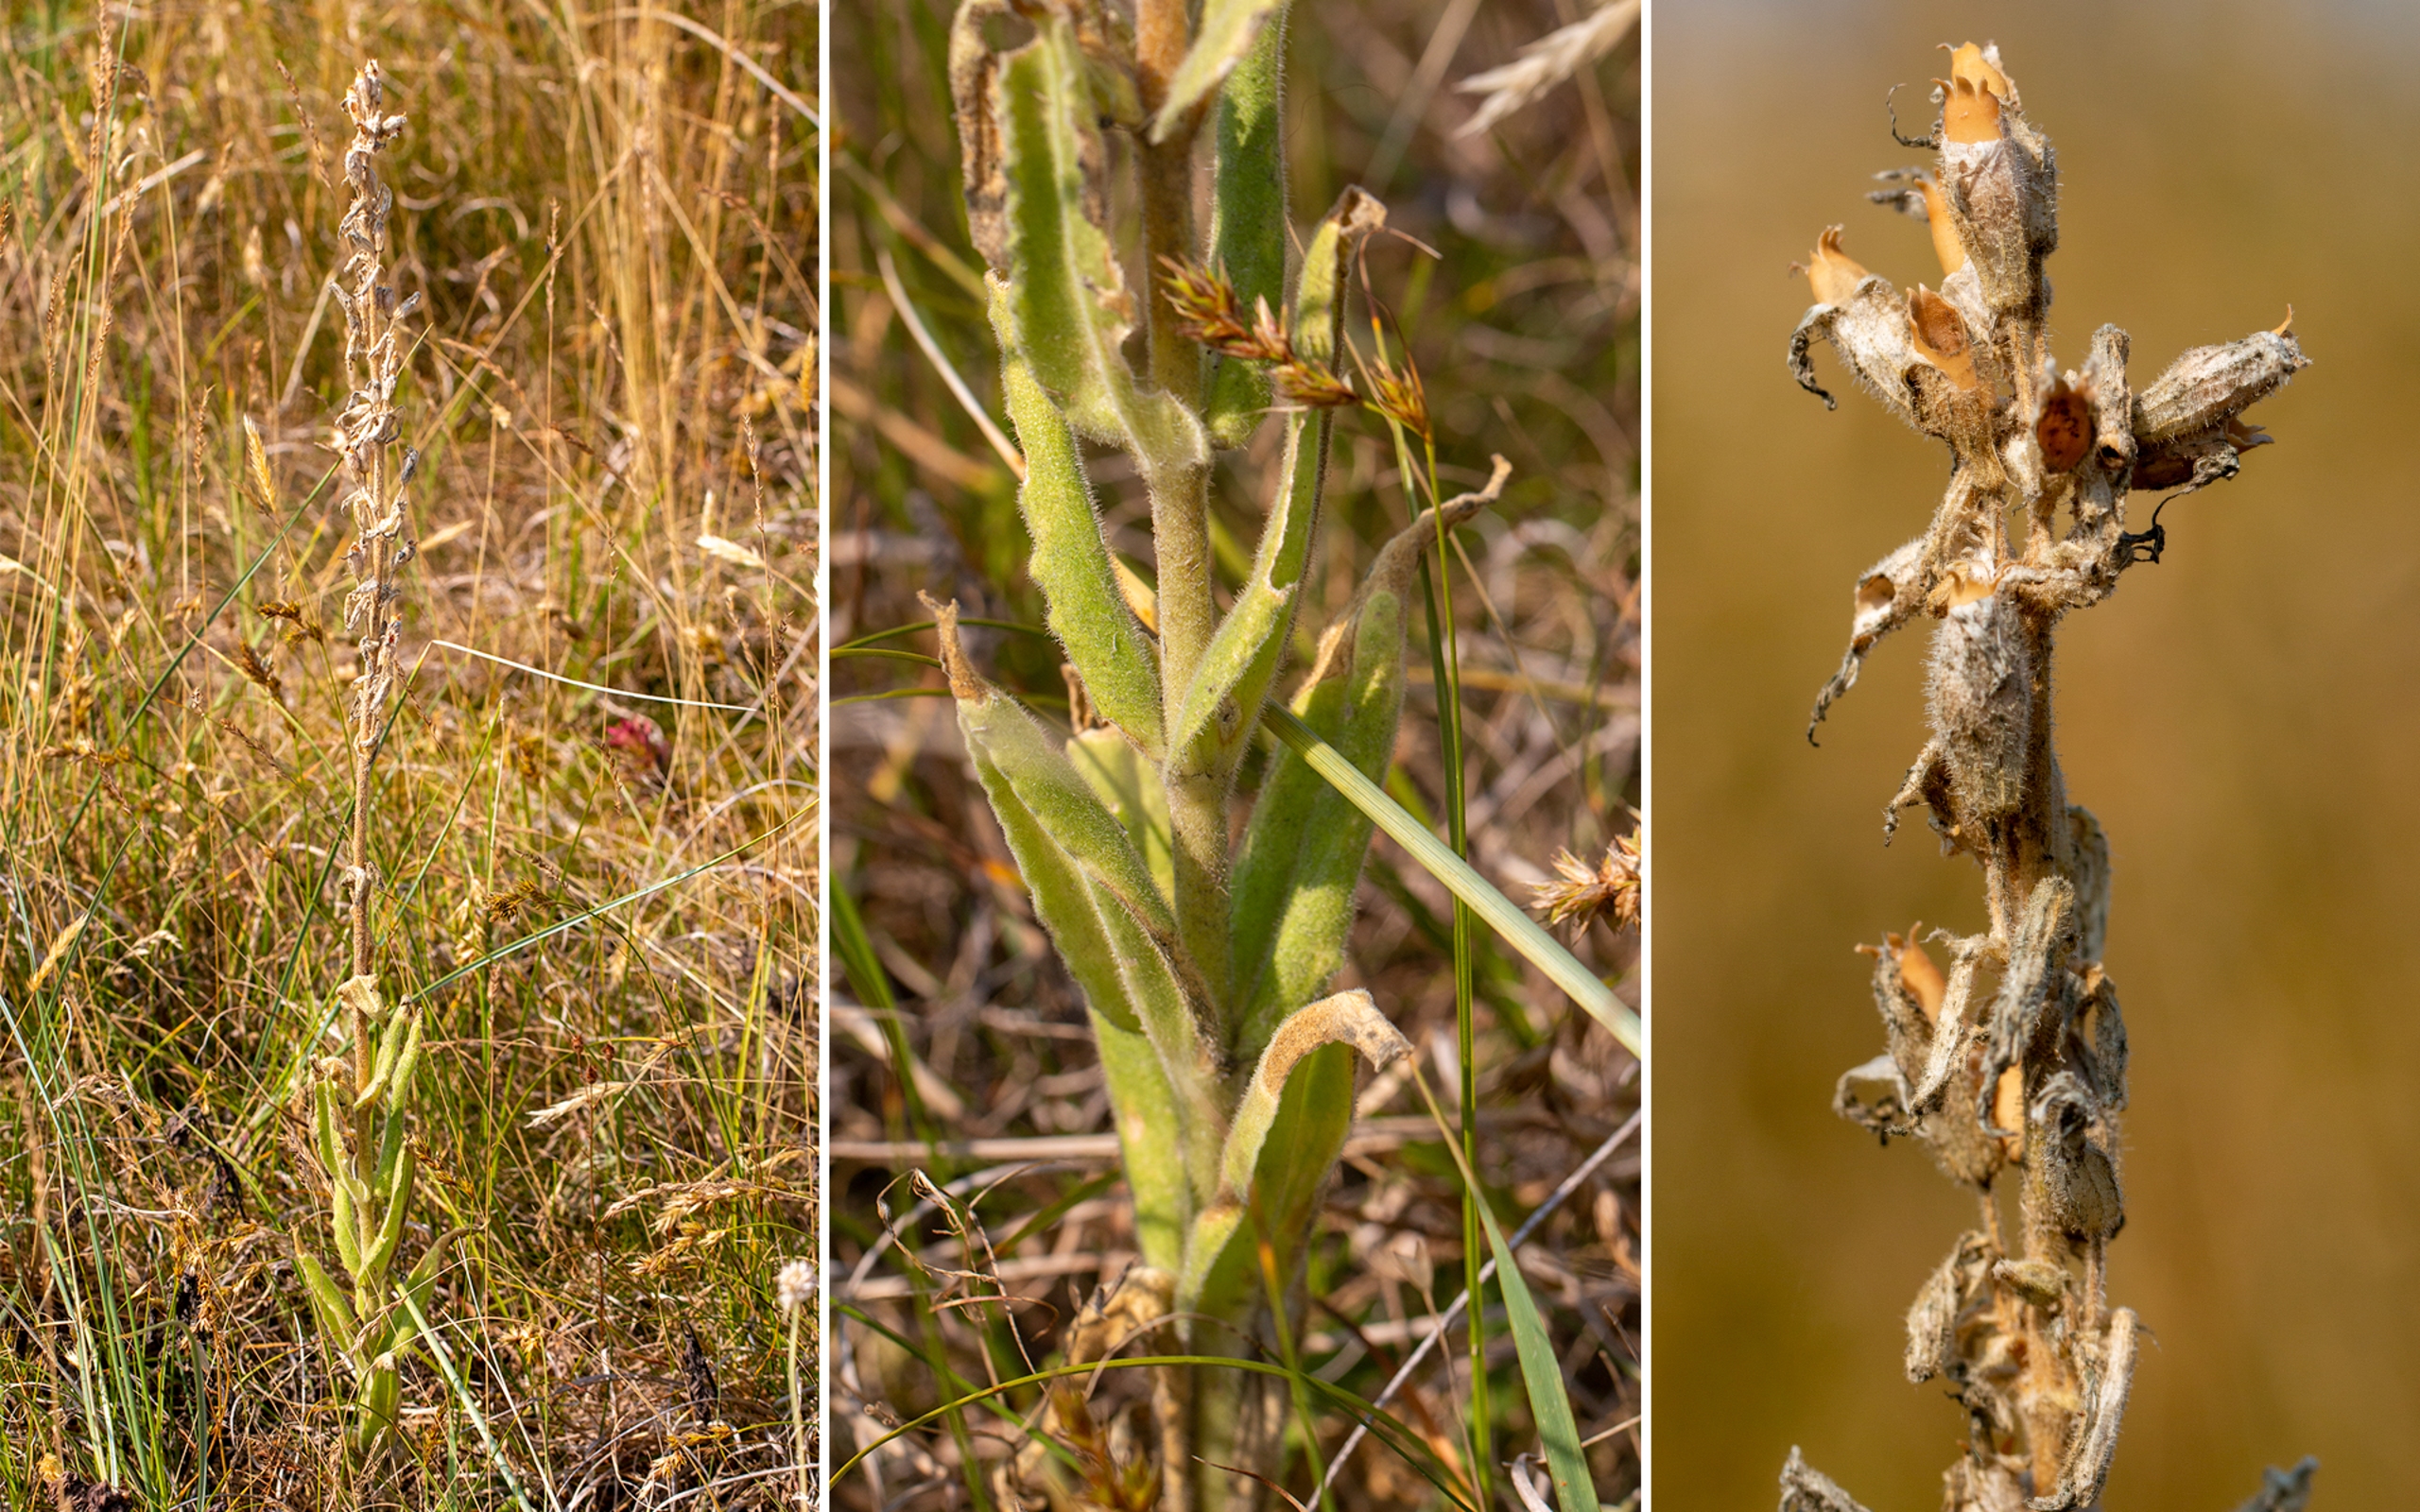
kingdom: Plantae
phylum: Tracheophyta
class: Magnoliopsida
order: Caryophyllales
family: Caryophyllaceae
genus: Silene
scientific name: Silene viscosa
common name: Klæbrig limurt
